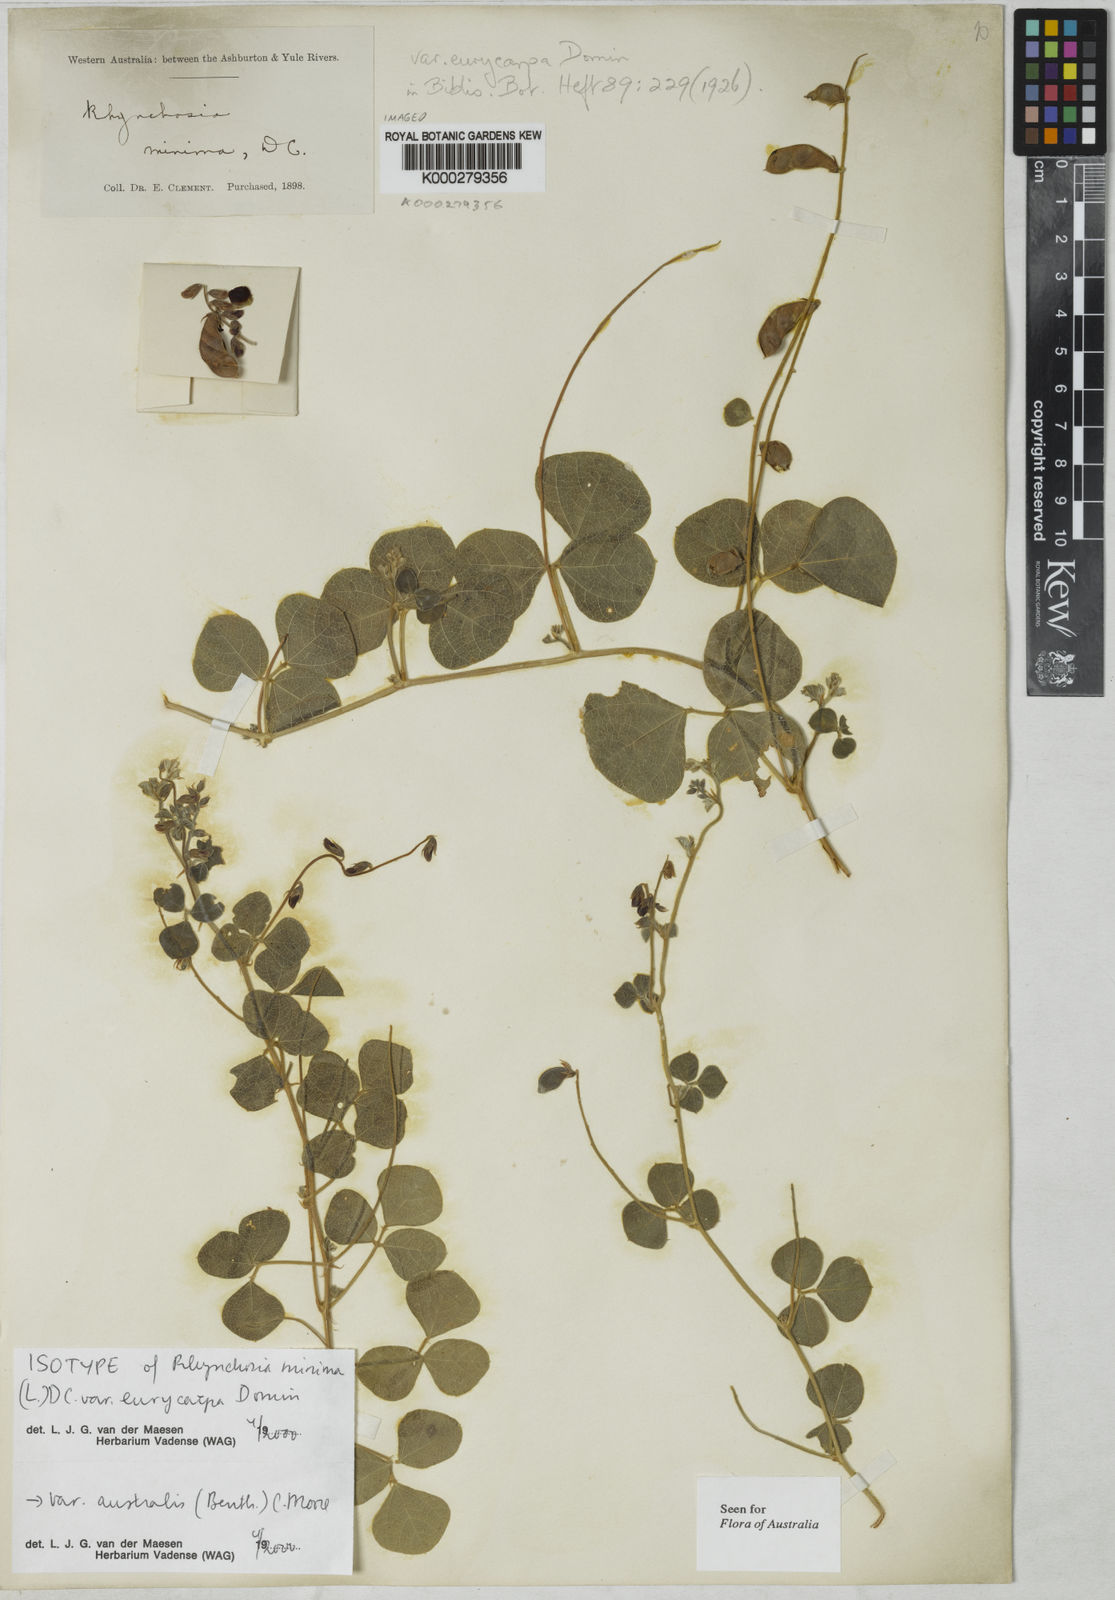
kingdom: Plantae
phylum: Tracheophyta
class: Magnoliopsida
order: Fabales
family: Fabaceae
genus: Rhynchosia
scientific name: Rhynchosia minima
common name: Least snoutbean
